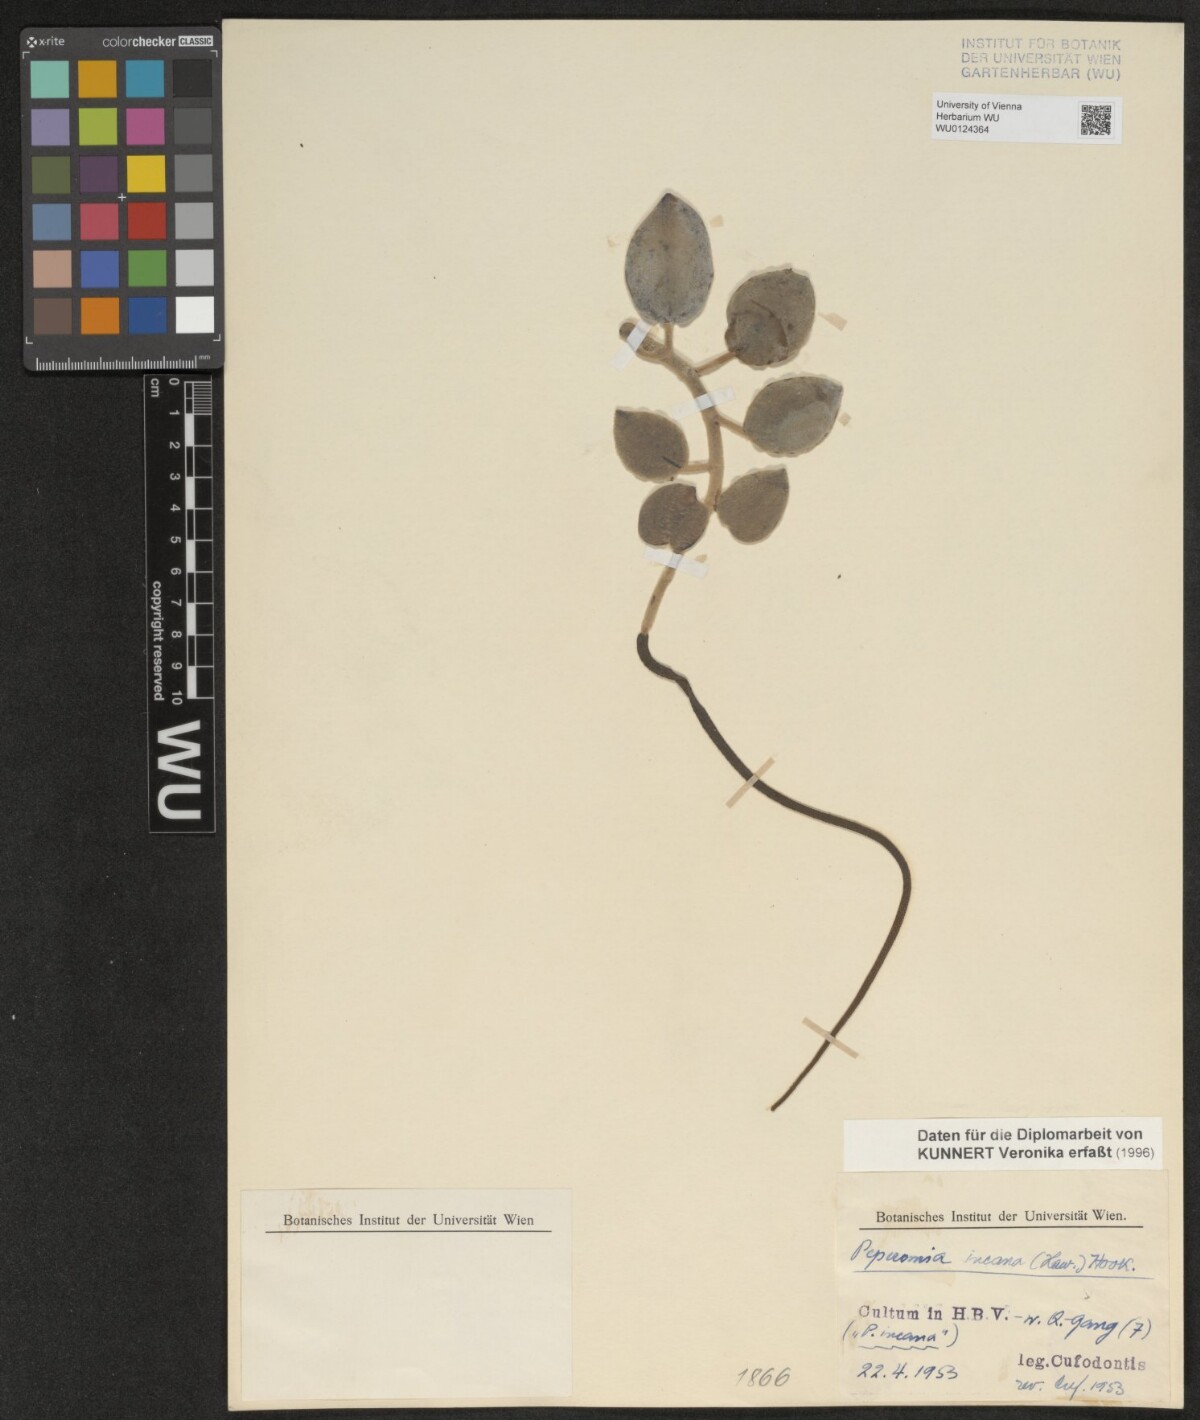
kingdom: Plantae
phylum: Tracheophyta
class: Magnoliopsida
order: Piperales
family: Piperaceae
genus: Peperomia
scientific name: Peperomia incana
